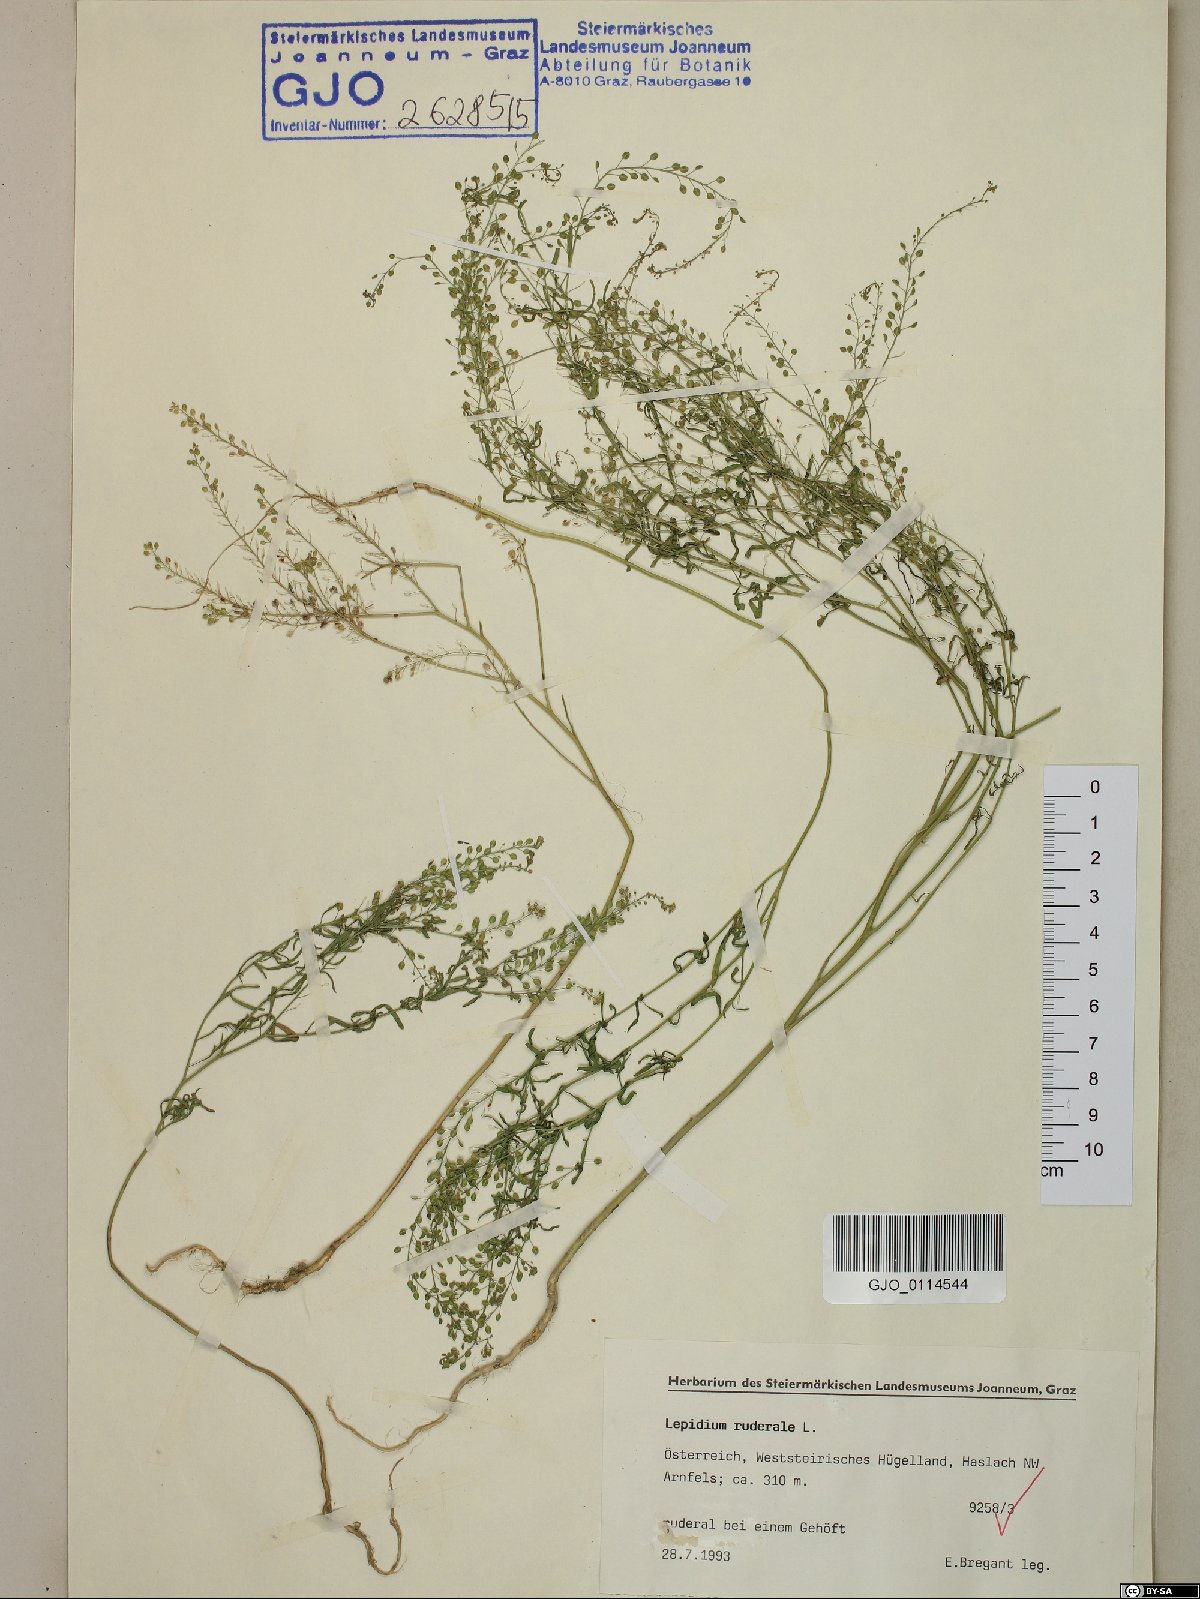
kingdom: Plantae
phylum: Tracheophyta
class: Magnoliopsida
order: Brassicales
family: Brassicaceae
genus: Lepidium
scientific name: Lepidium ruderale
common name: Narrow-leaved pepperwort
